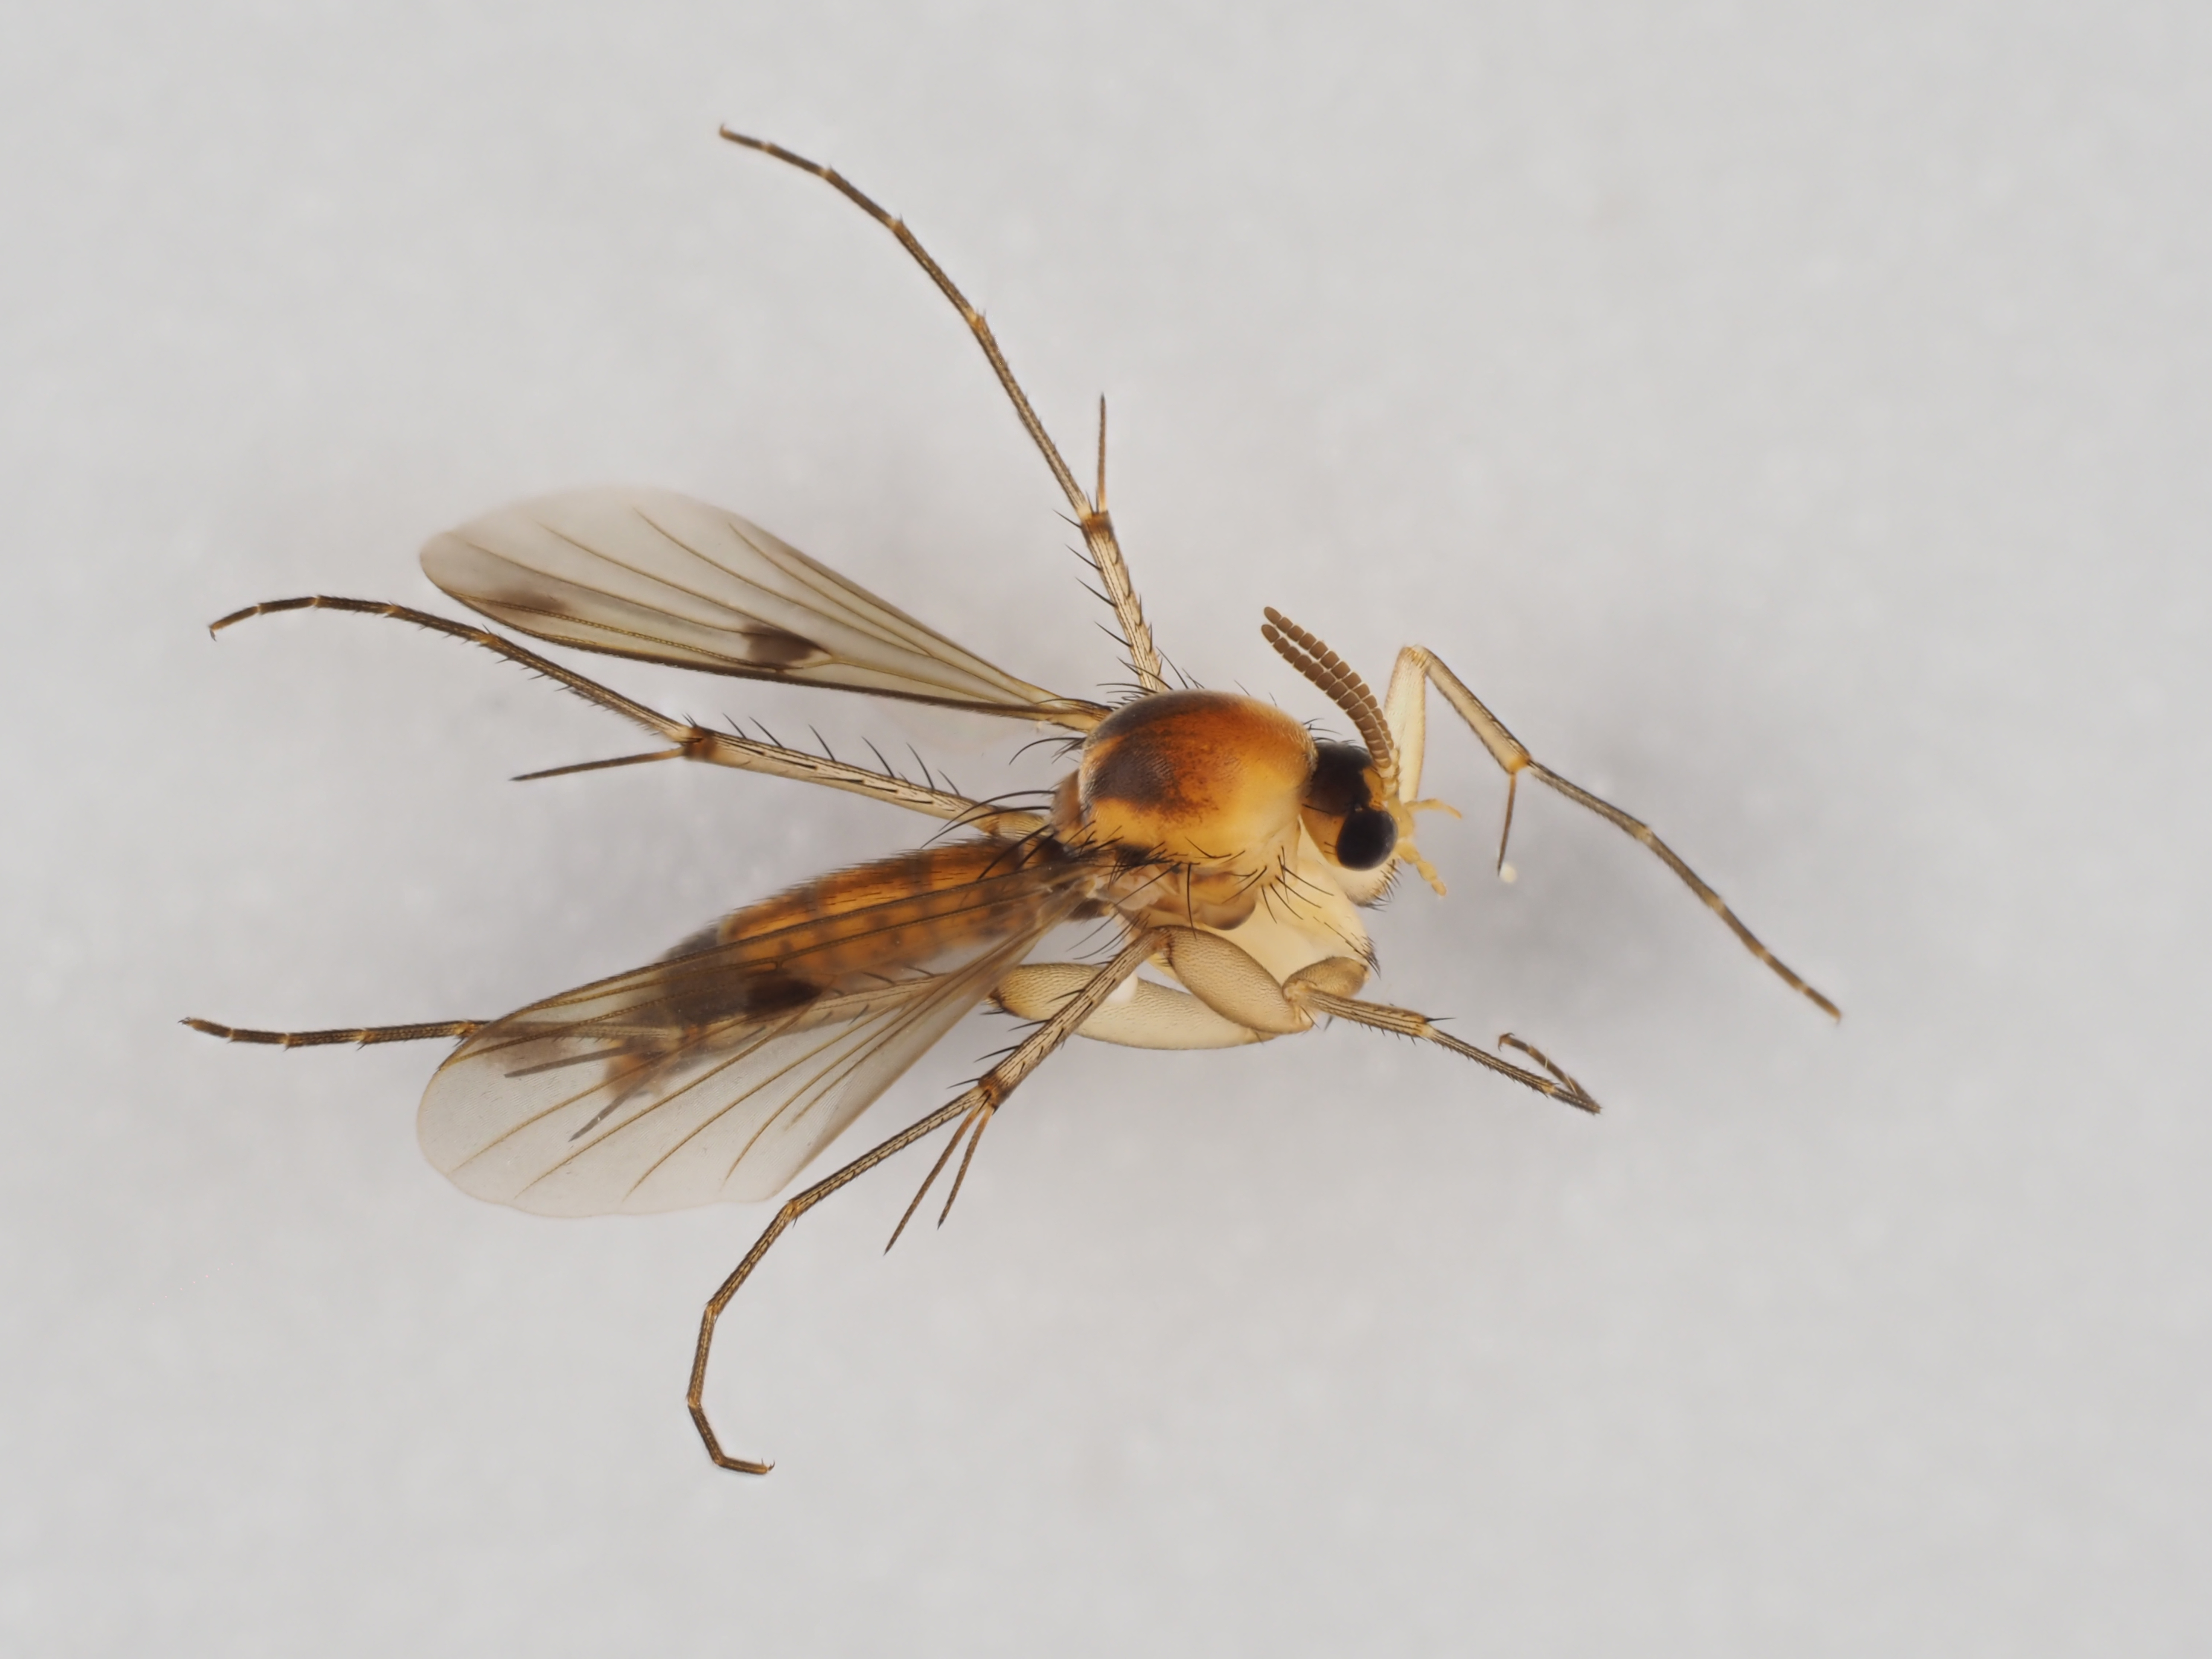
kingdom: Animalia
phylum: Arthropoda
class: Insecta
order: Diptera
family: Mycetophilidae
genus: Brachypeza
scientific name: Brachypeza bisignata
